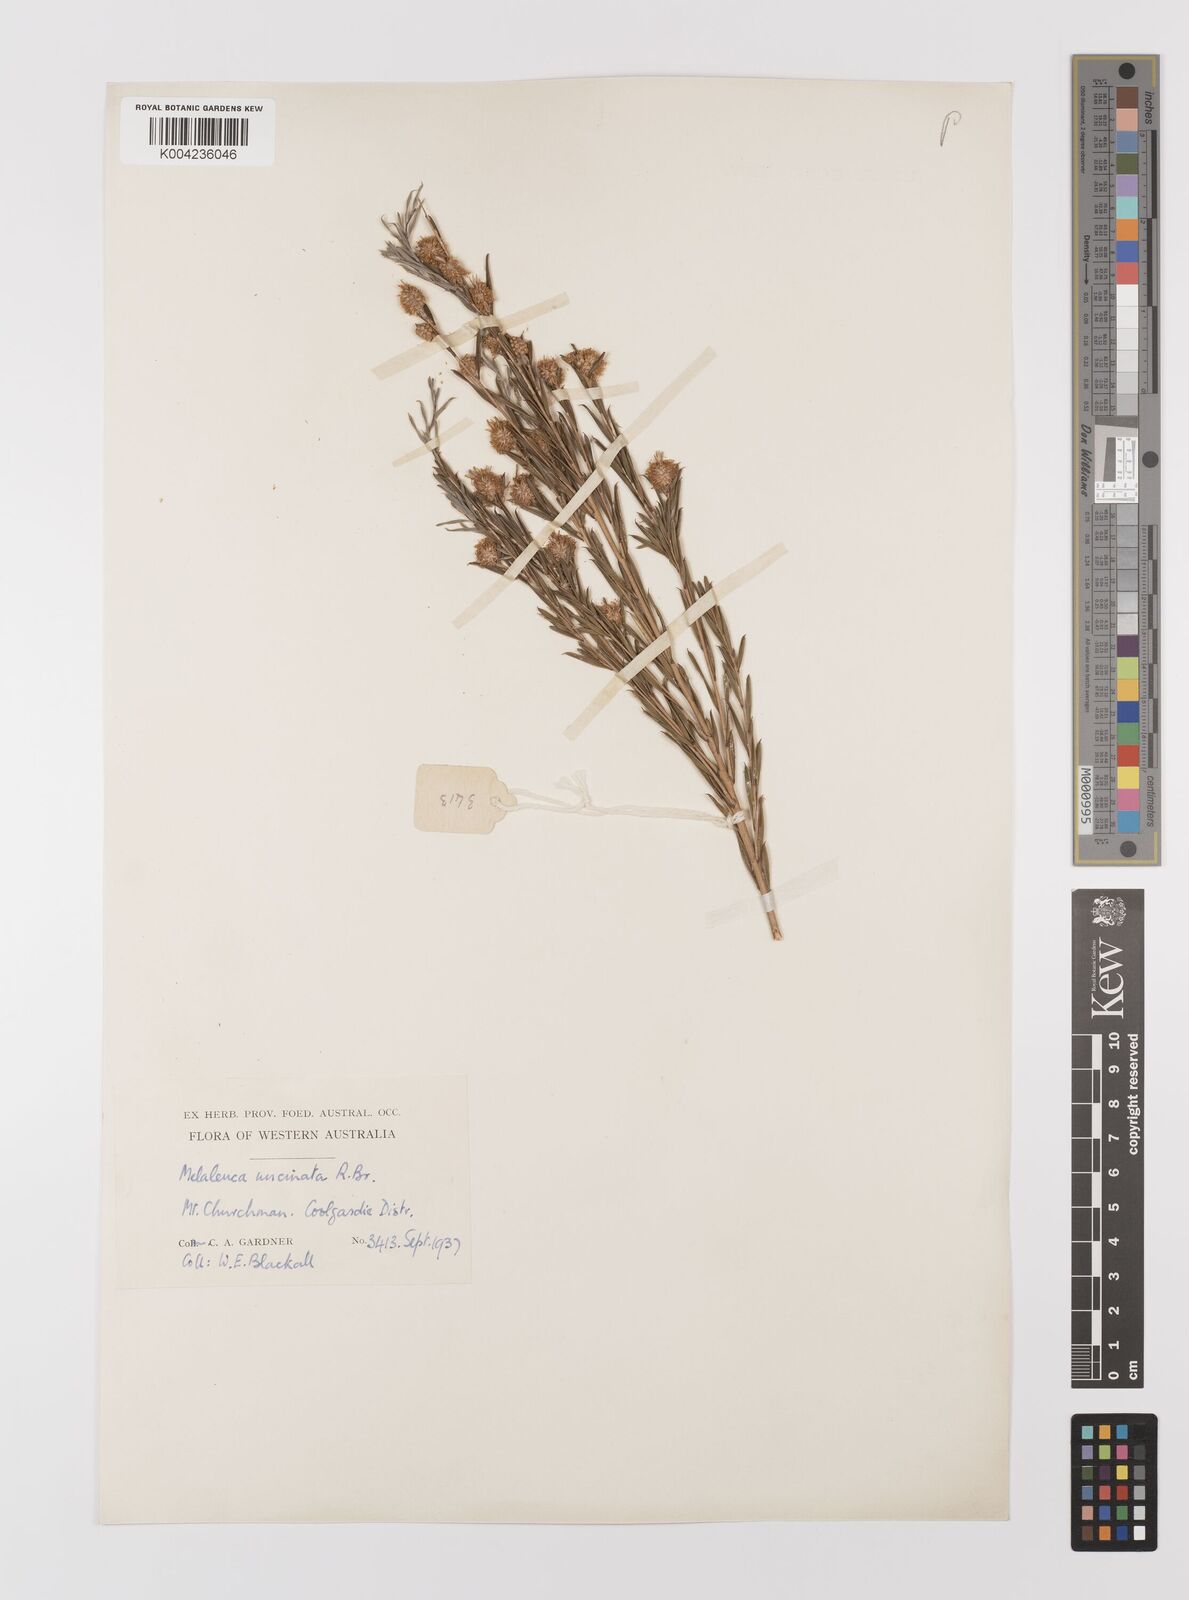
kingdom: Plantae
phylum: Tracheophyta
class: Magnoliopsida
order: Myrtales
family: Myrtaceae
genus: Melaleuca
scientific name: Melaleuca uncinata
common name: Broom honey myrtle
